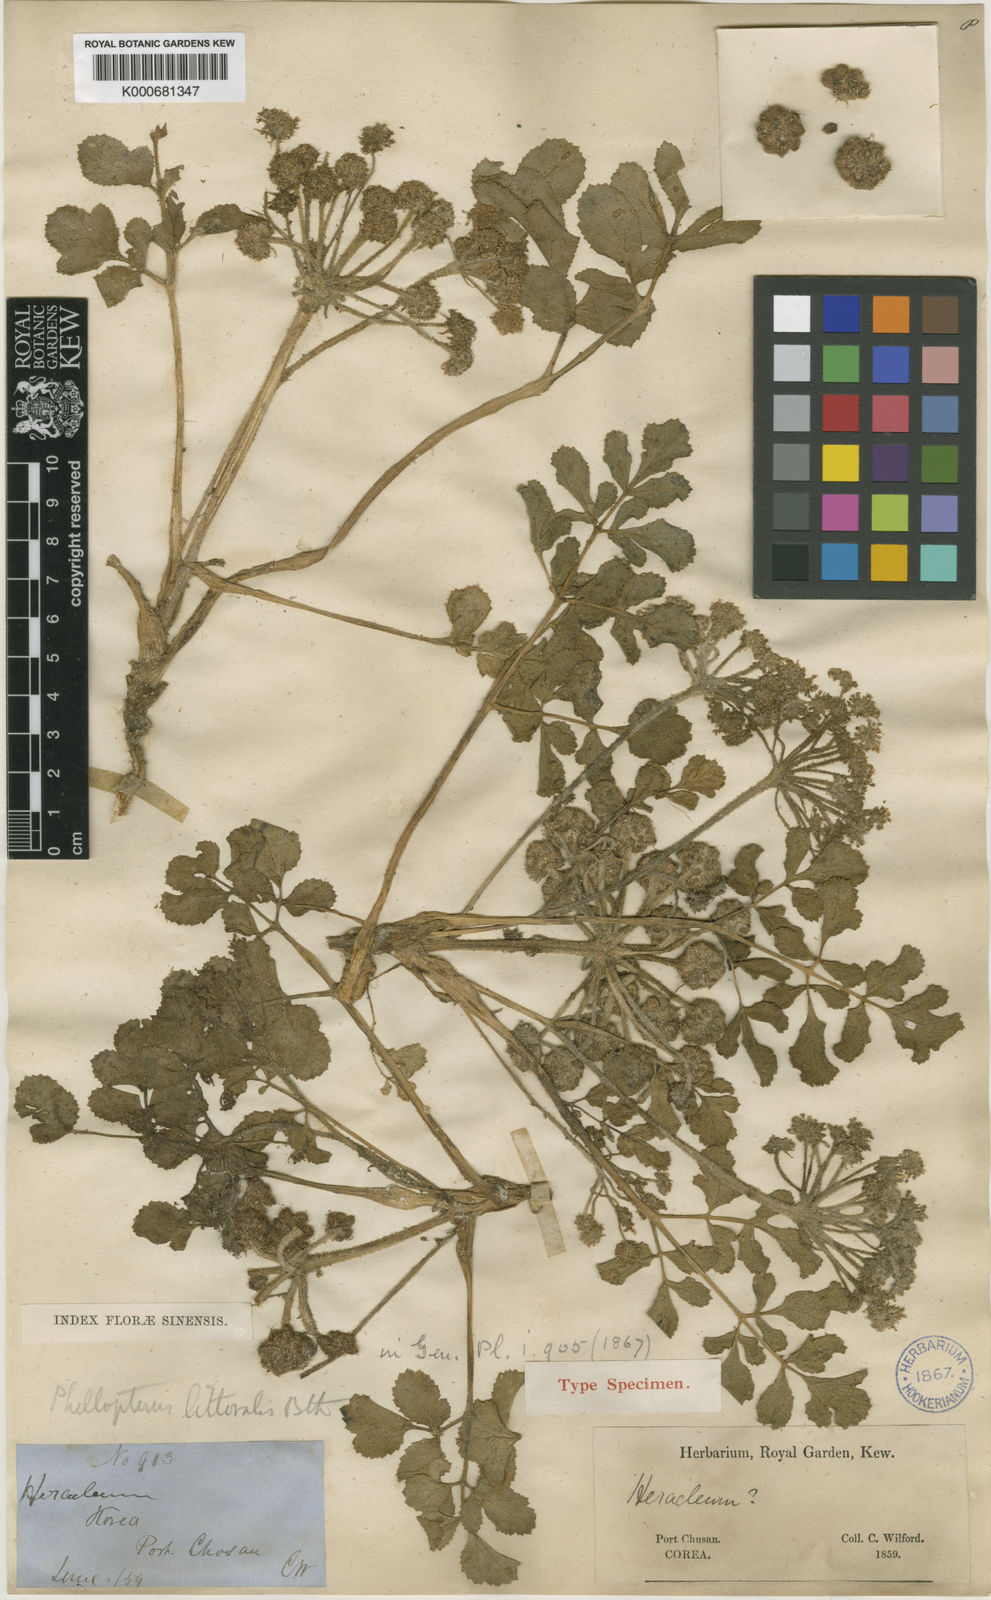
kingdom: Plantae
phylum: Tracheophyta
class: Magnoliopsida
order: Apiales
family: Apiaceae
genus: Glehnia
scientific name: Glehnia littoralis
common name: Beach silvertop
